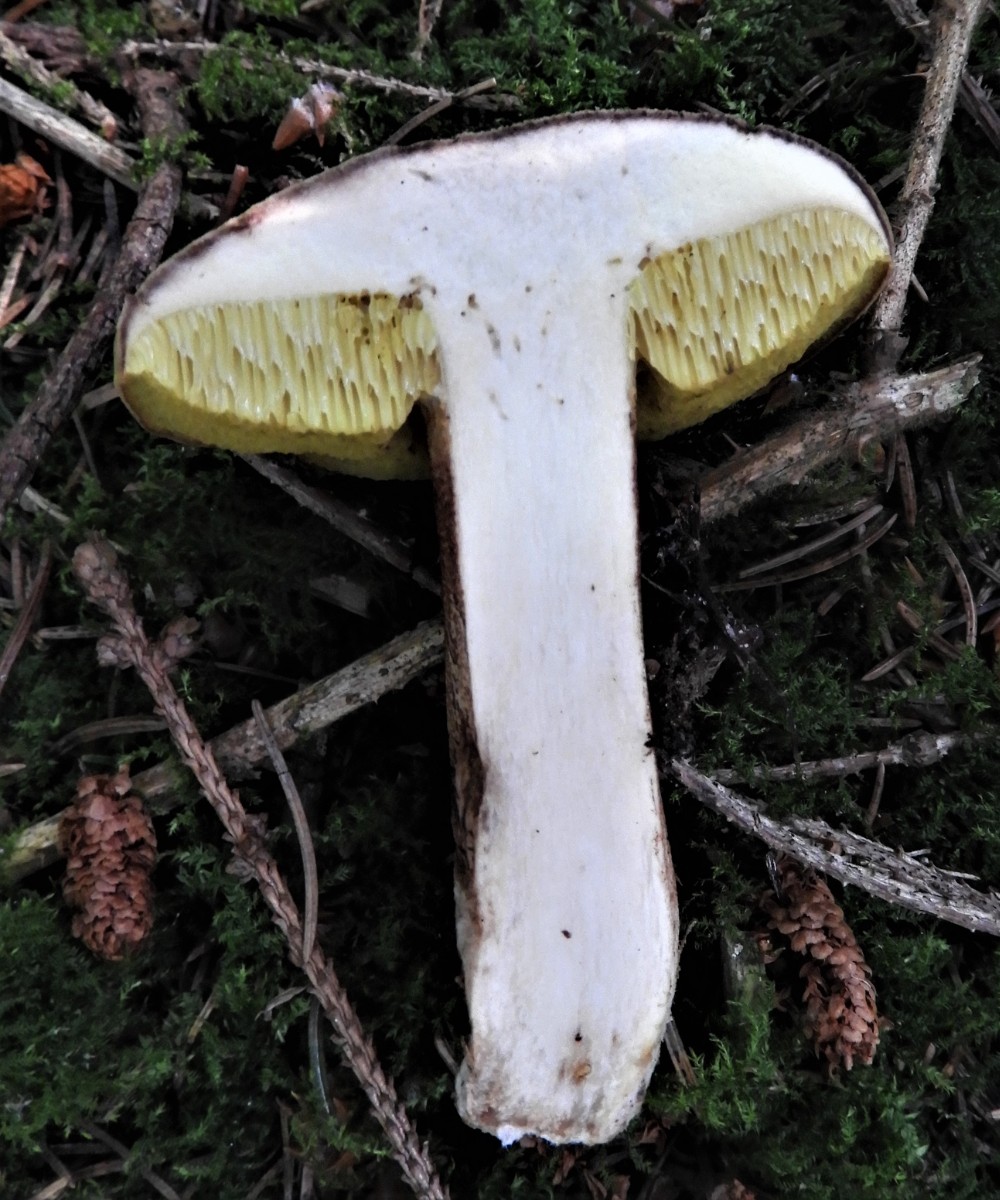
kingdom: Fungi
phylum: Basidiomycota
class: Agaricomycetes
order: Boletales
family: Boletaceae
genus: Xerocomellus
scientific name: Xerocomellus
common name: dværgrørhat
